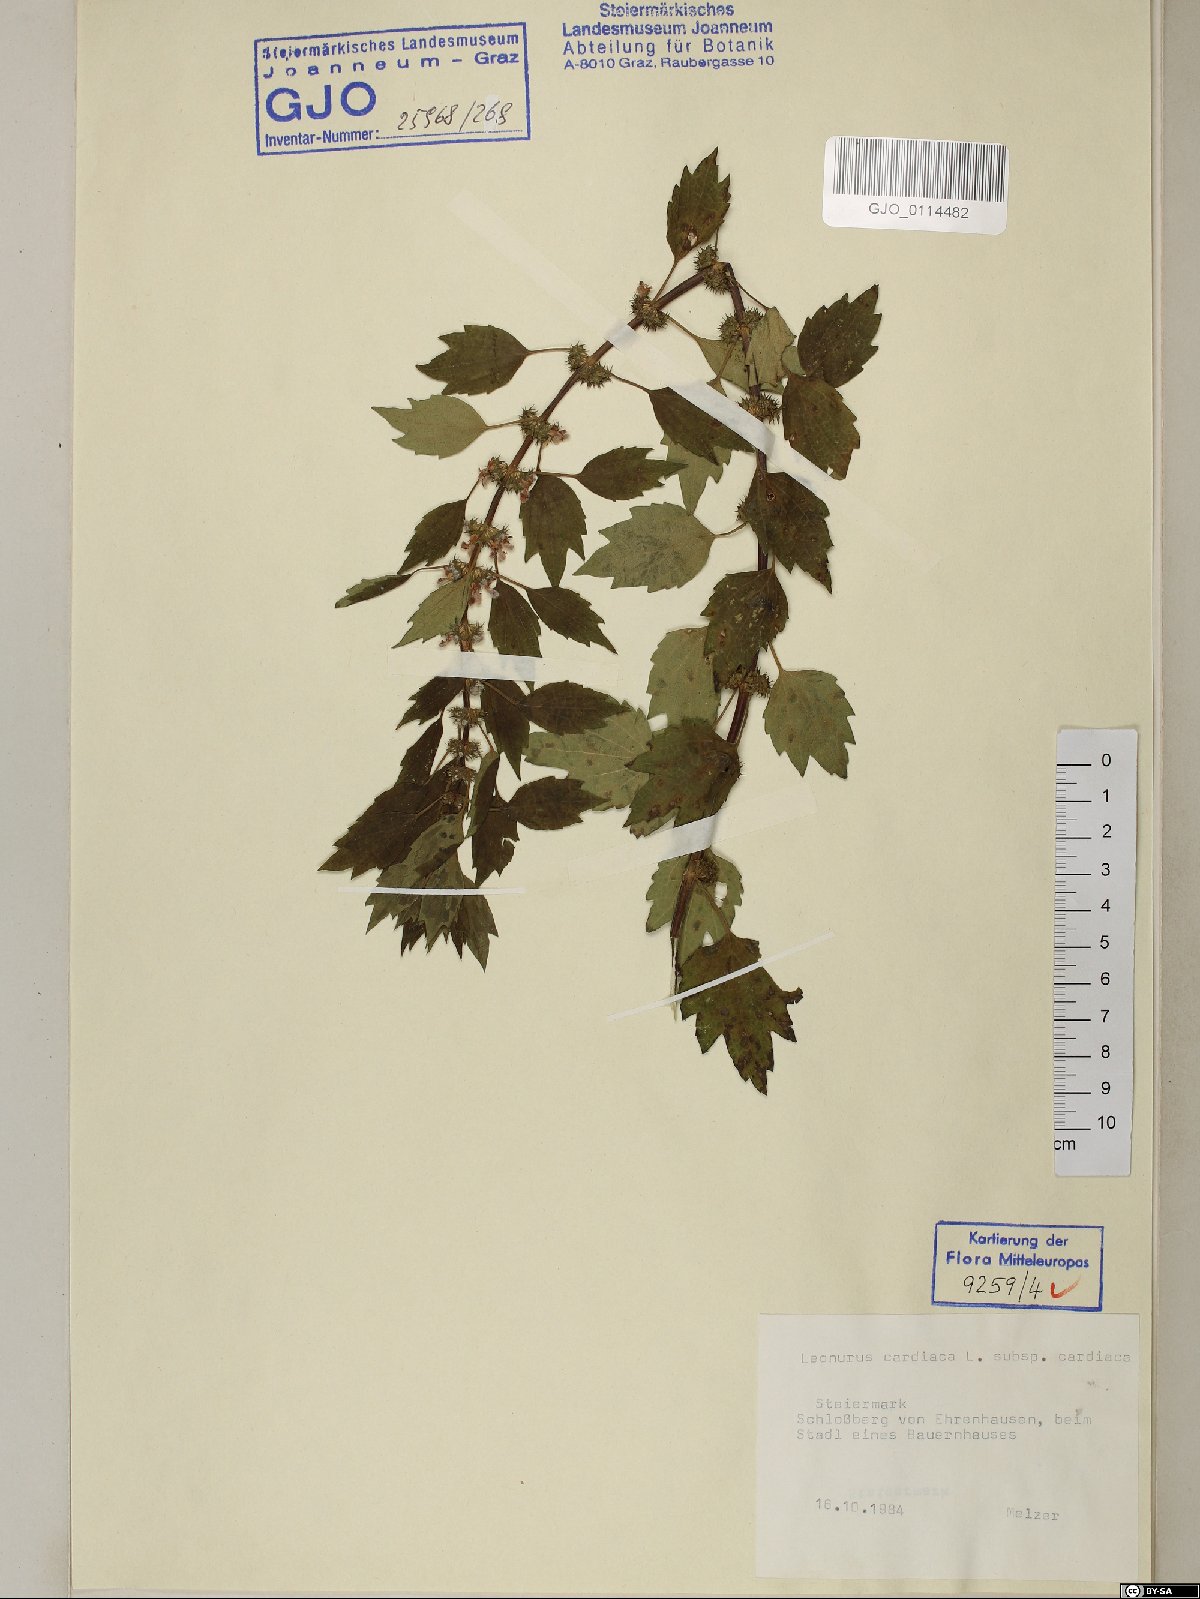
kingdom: Plantae
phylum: Tracheophyta
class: Magnoliopsida
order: Lamiales
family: Lamiaceae
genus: Leonurus
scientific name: Leonurus cardiaca
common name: Motherwort
